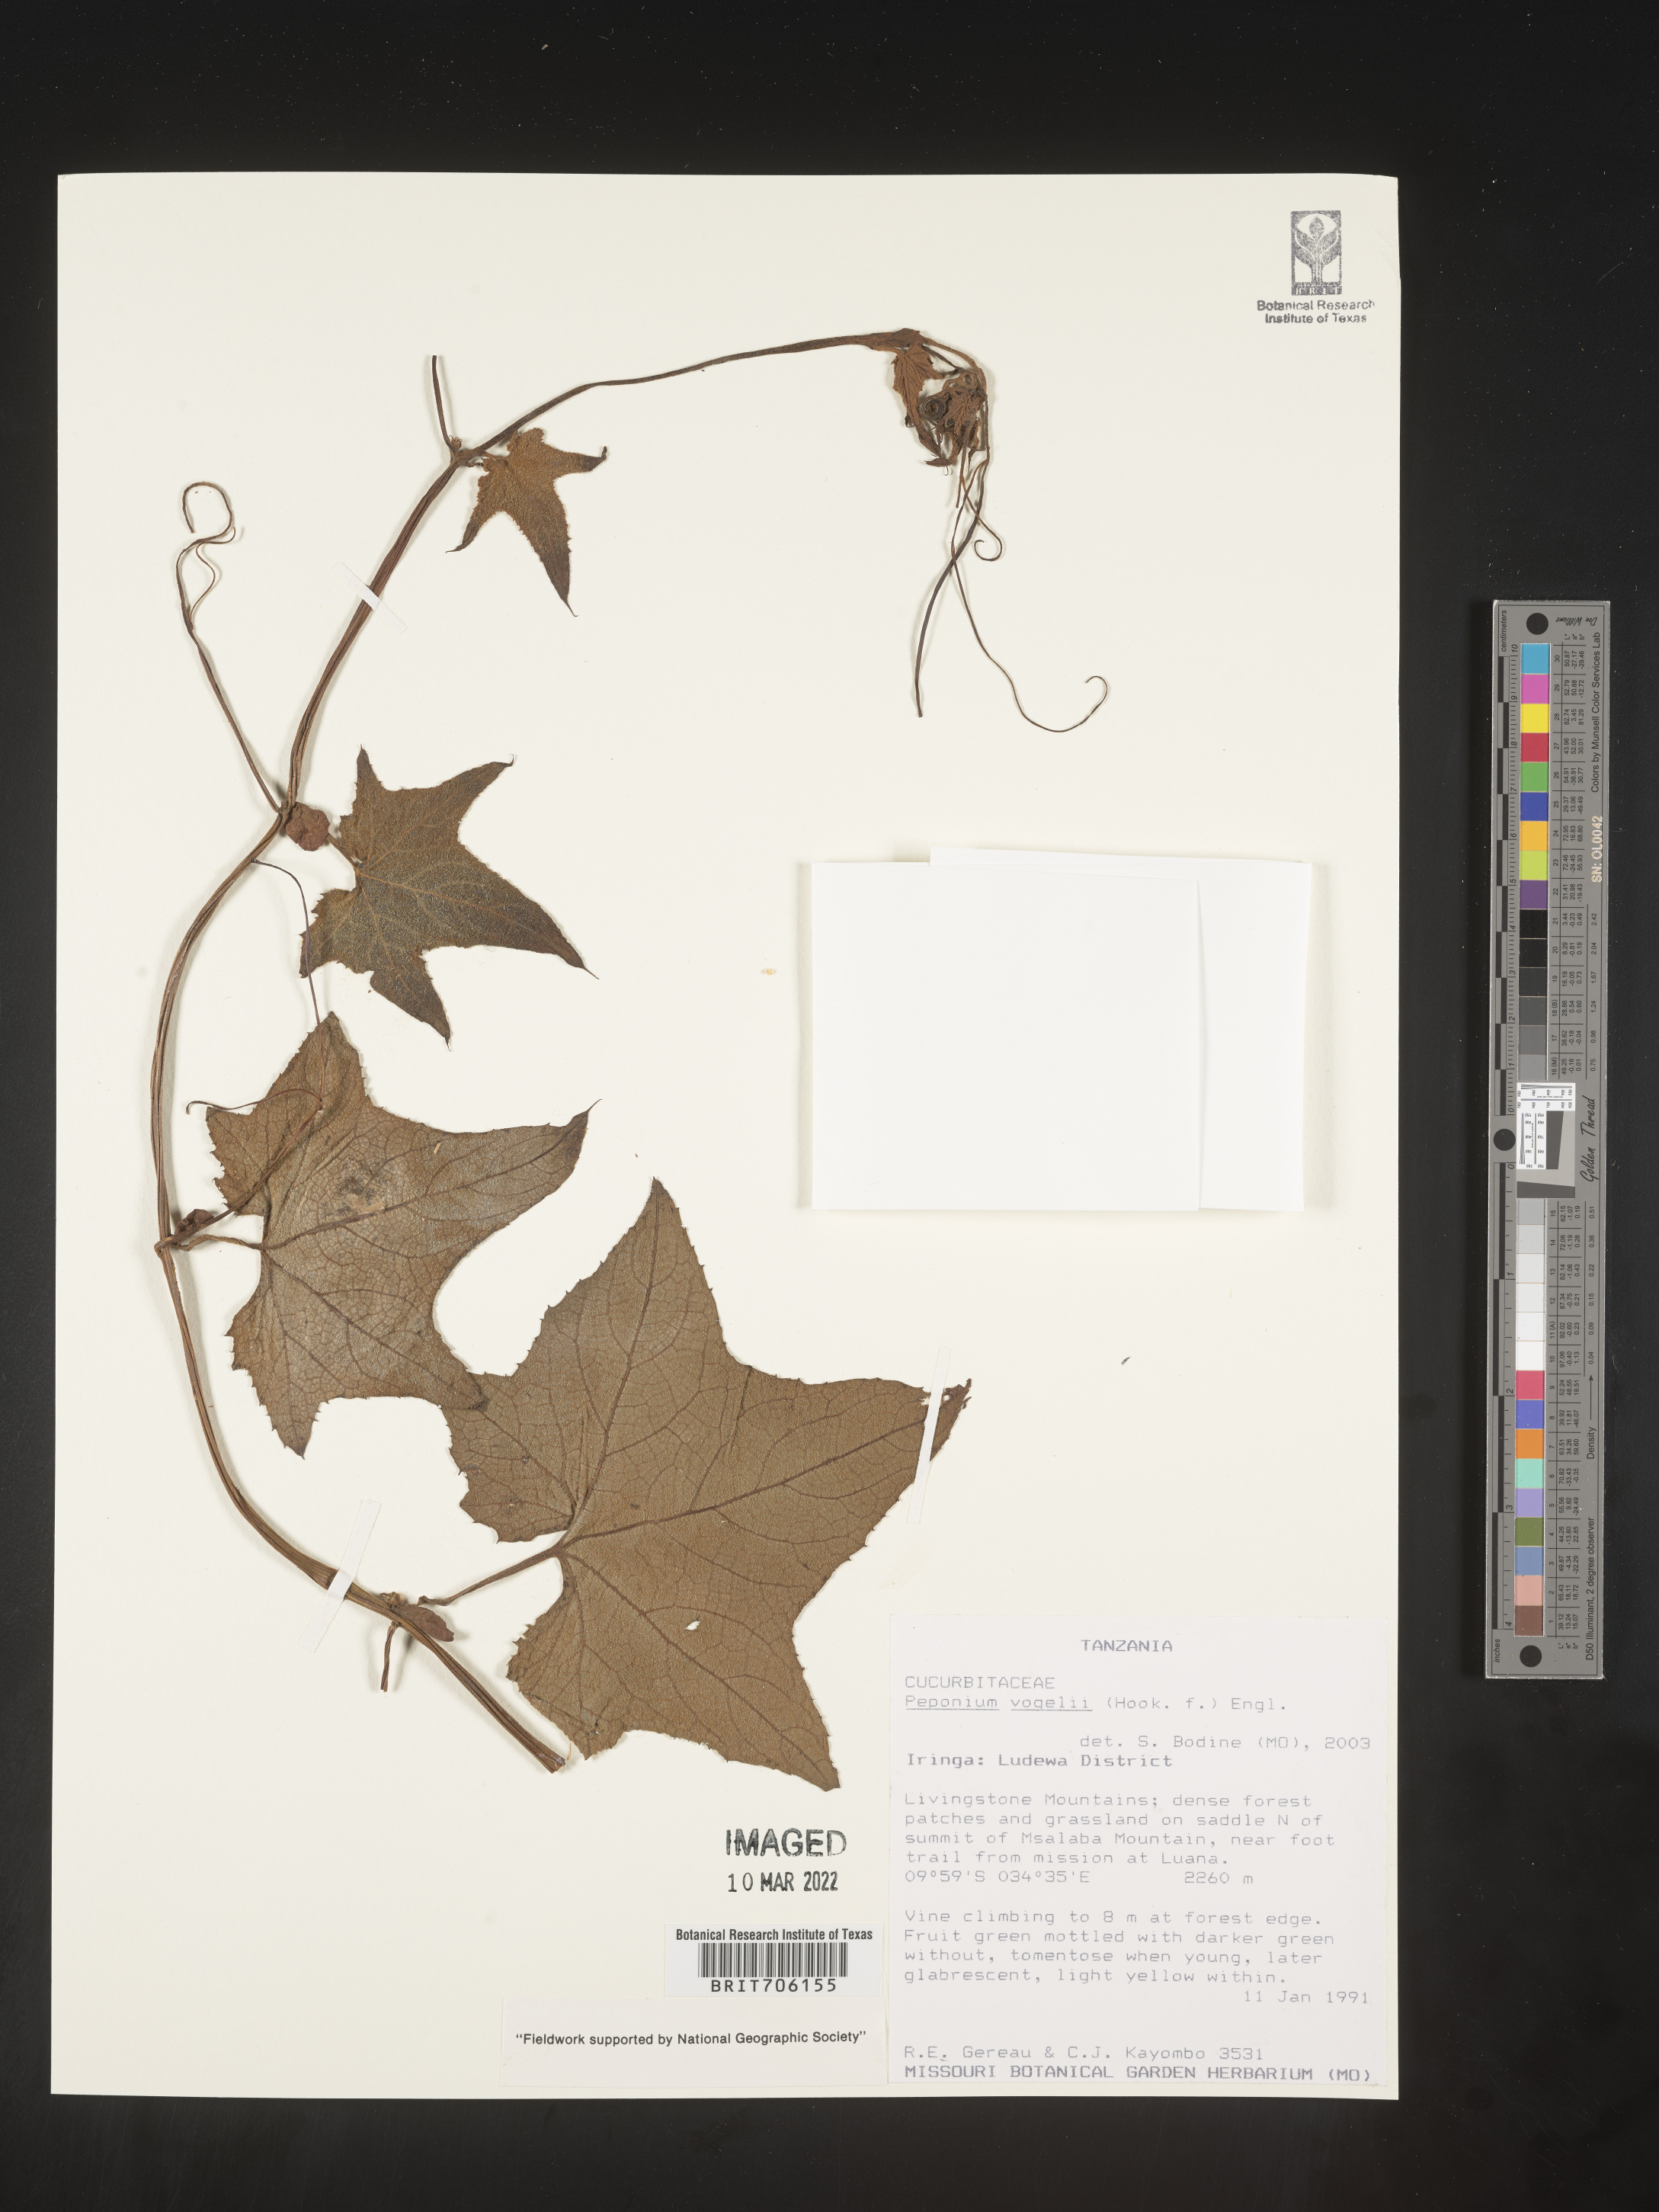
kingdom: Plantae
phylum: Tracheophyta
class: Magnoliopsida
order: Cucurbitales
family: Cucurbitaceae
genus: Peponium
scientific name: Peponium
